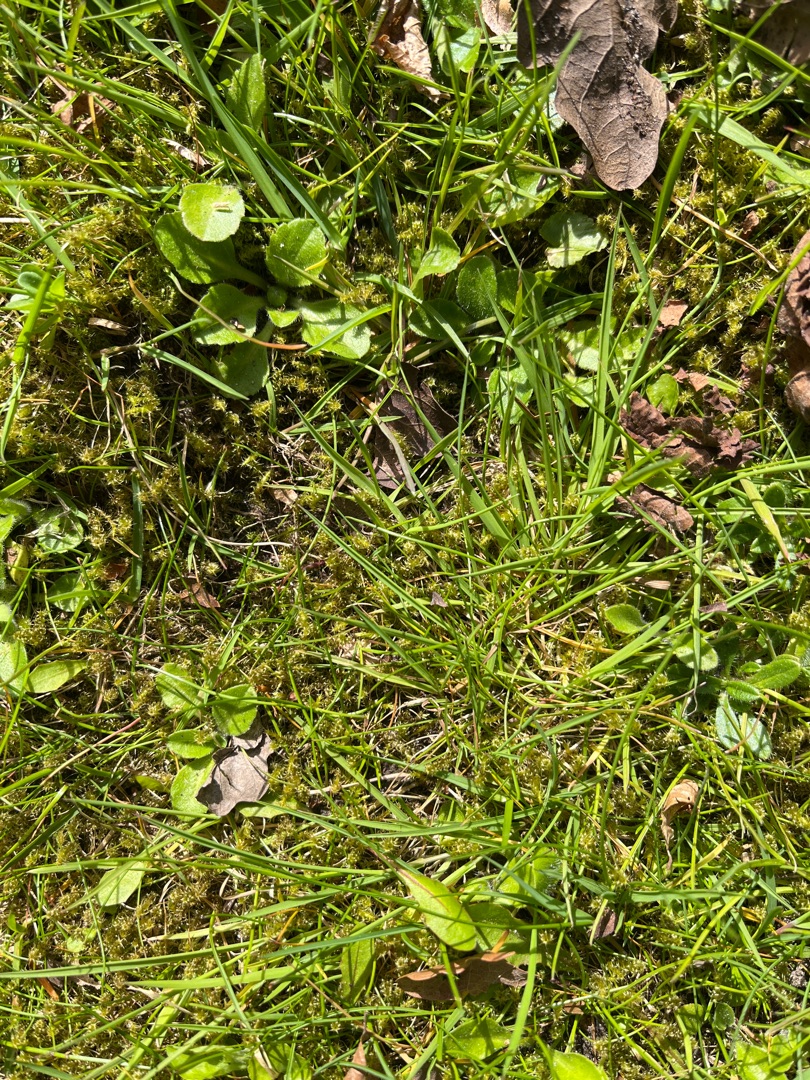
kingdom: Plantae
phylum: Bryophyta
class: Bryopsida
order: Hypnales
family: Hylocomiaceae
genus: Rhytidiadelphus
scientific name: Rhytidiadelphus squarrosus
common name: Plæne-kransemos
